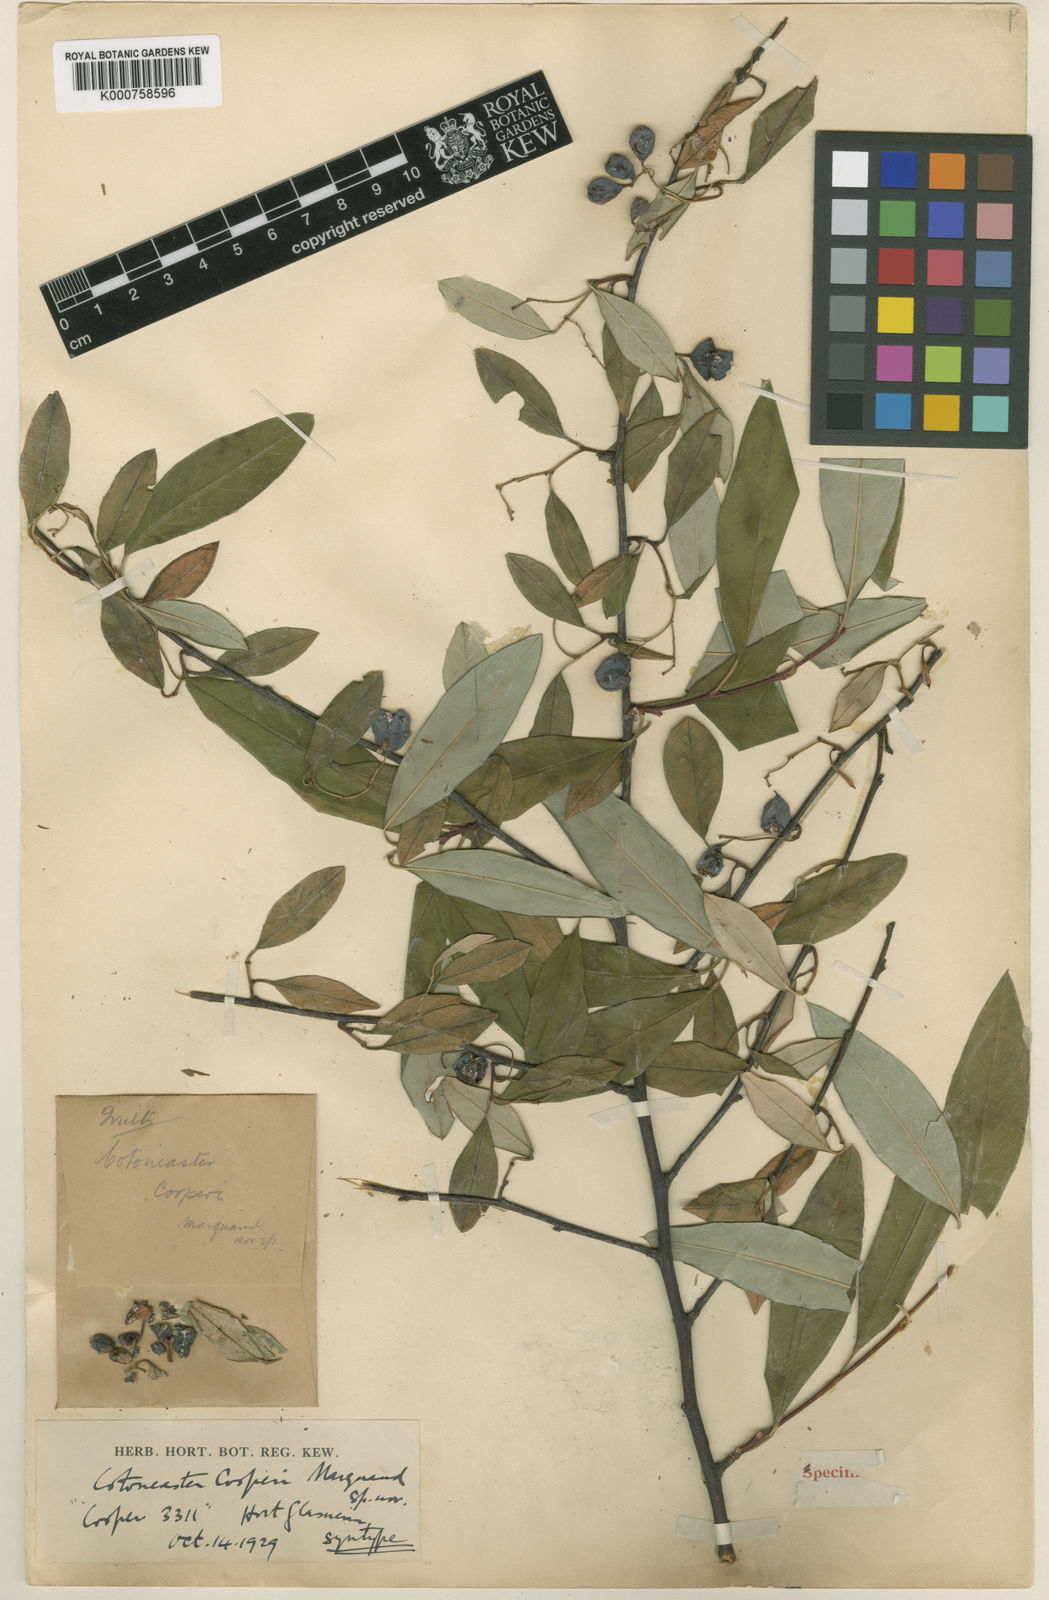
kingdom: Plantae
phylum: Tracheophyta
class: Magnoliopsida
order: Rosales
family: Rosaceae
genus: Cotoneaster
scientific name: Cotoneaster cooperi
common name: Cooper's cotoneaster
